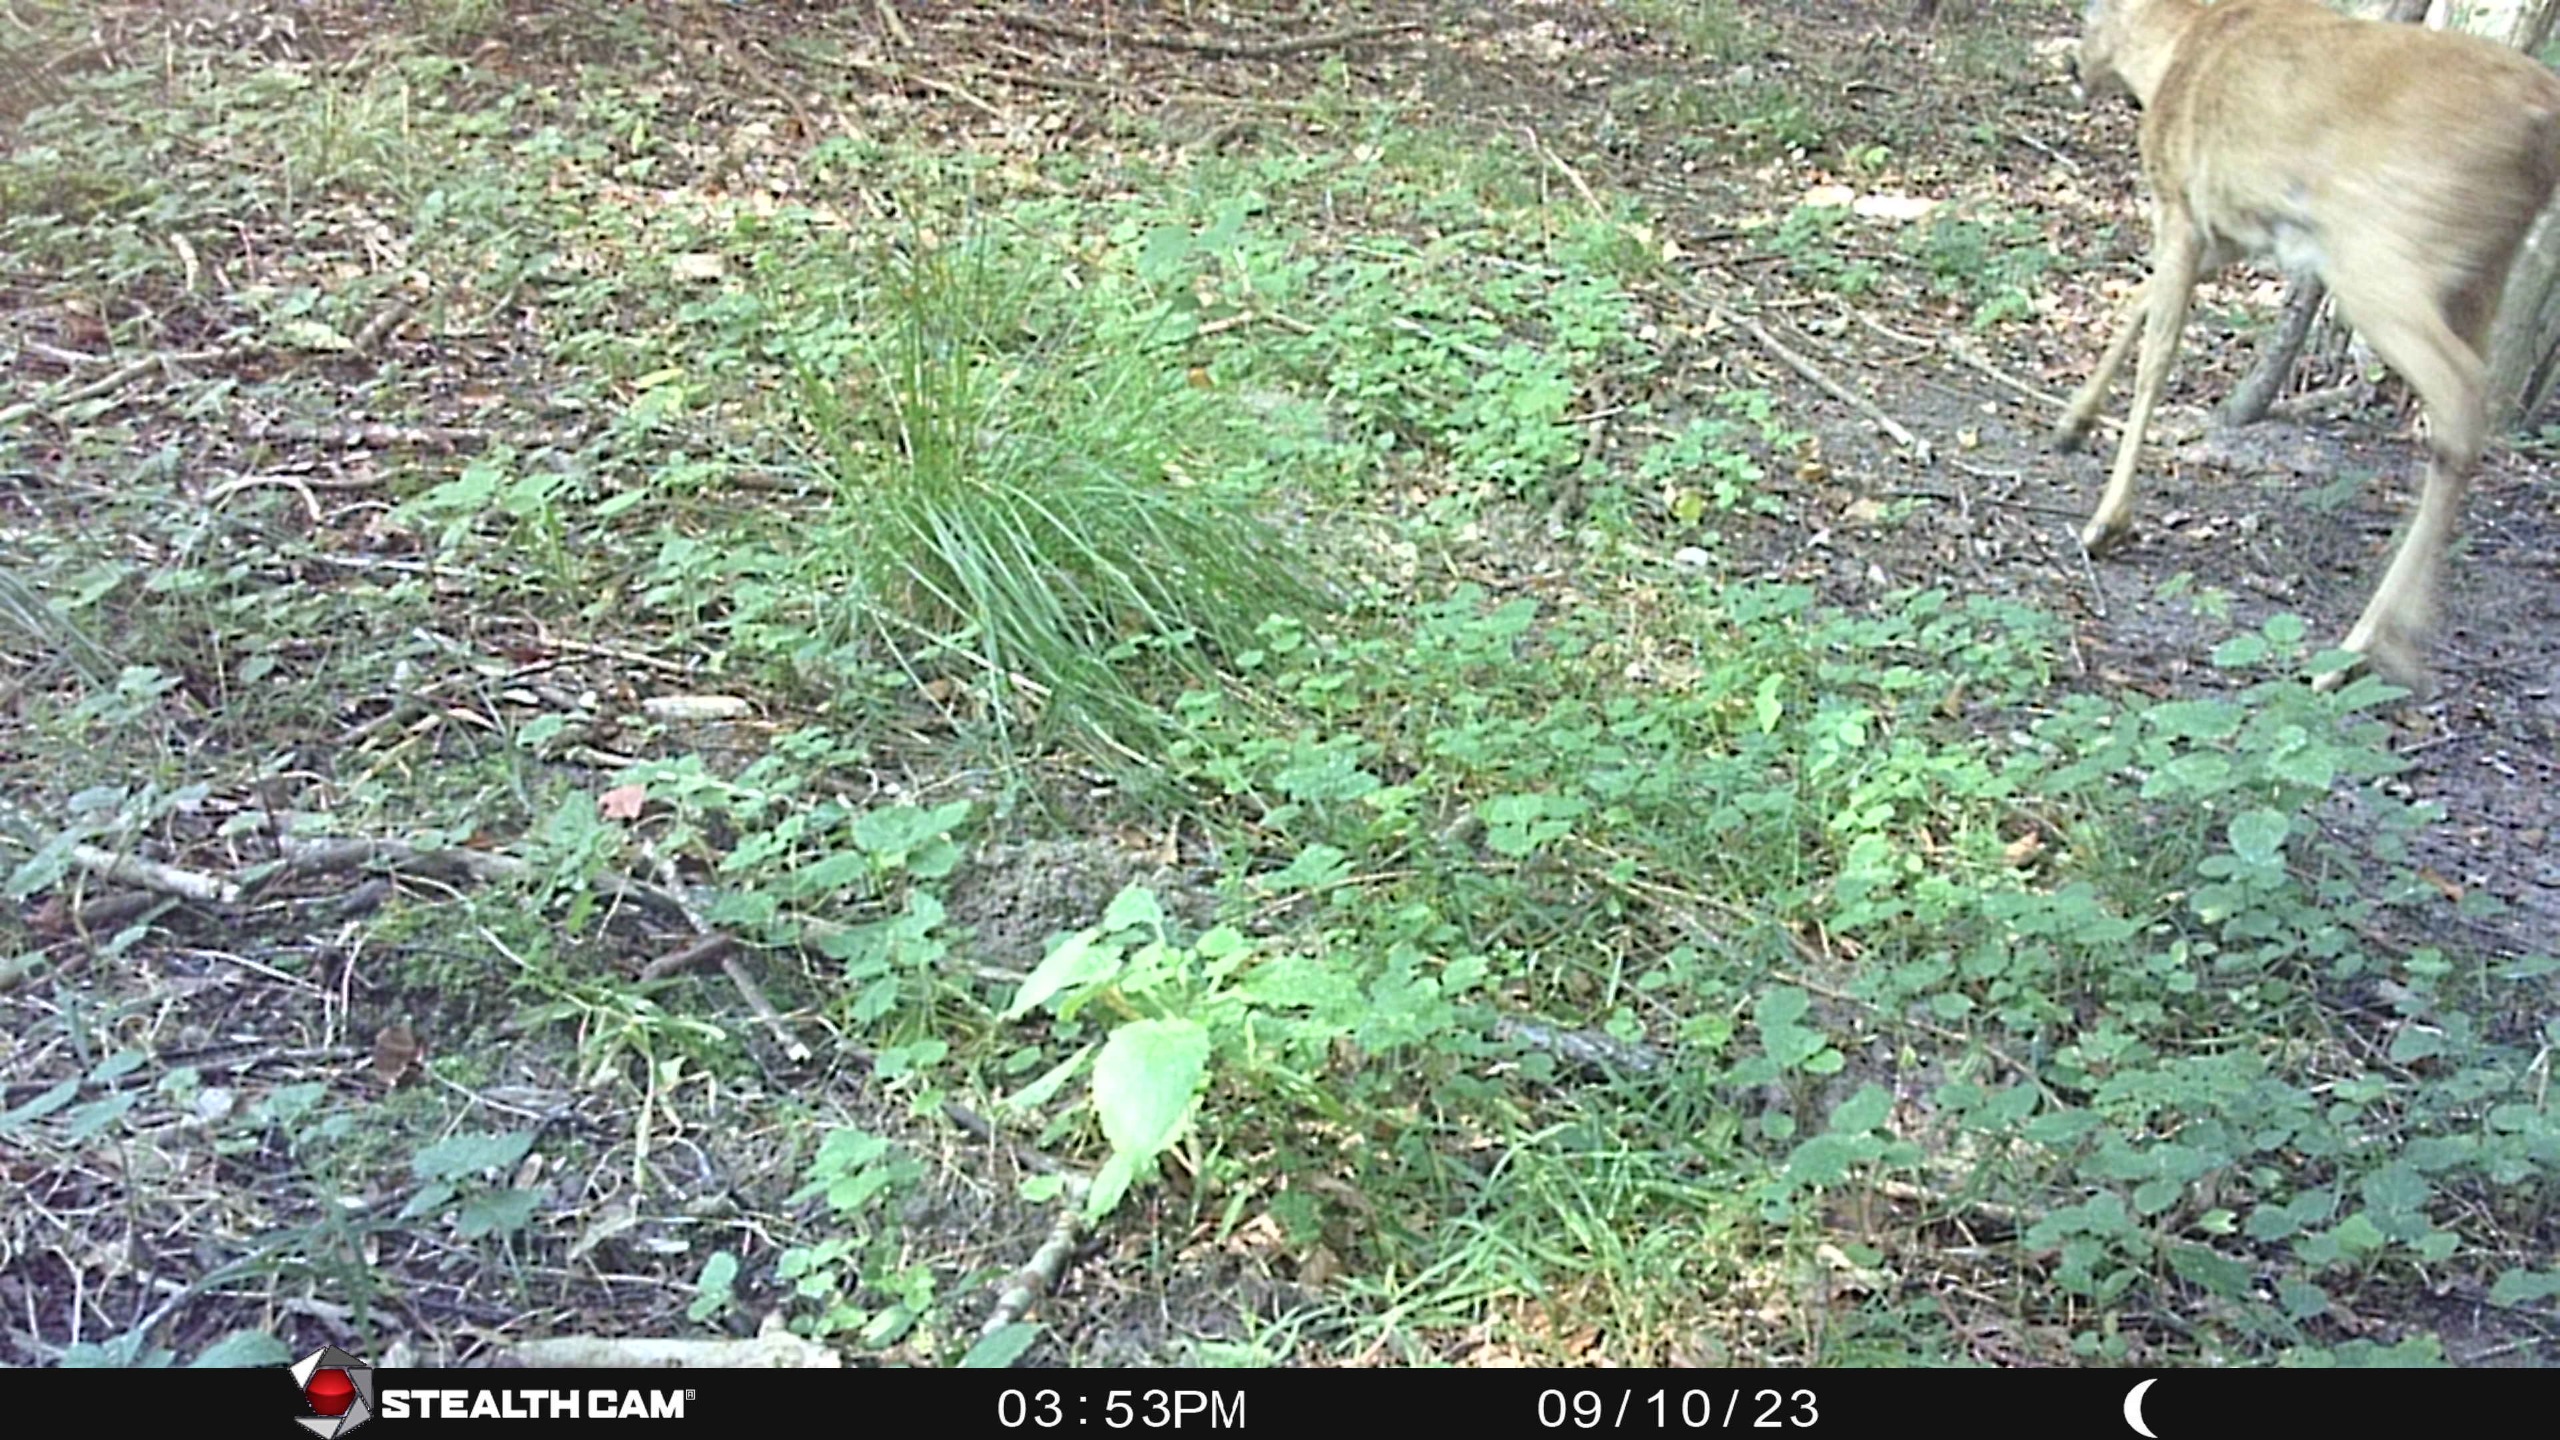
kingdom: Animalia
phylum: Chordata
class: Mammalia
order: Artiodactyla
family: Cervidae
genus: Capreolus
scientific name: Capreolus capreolus
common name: Rådyr
